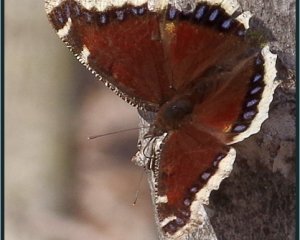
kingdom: Animalia
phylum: Arthropoda
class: Insecta
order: Lepidoptera
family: Nymphalidae
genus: Nymphalis
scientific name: Nymphalis antiopa
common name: Mourning Cloak
